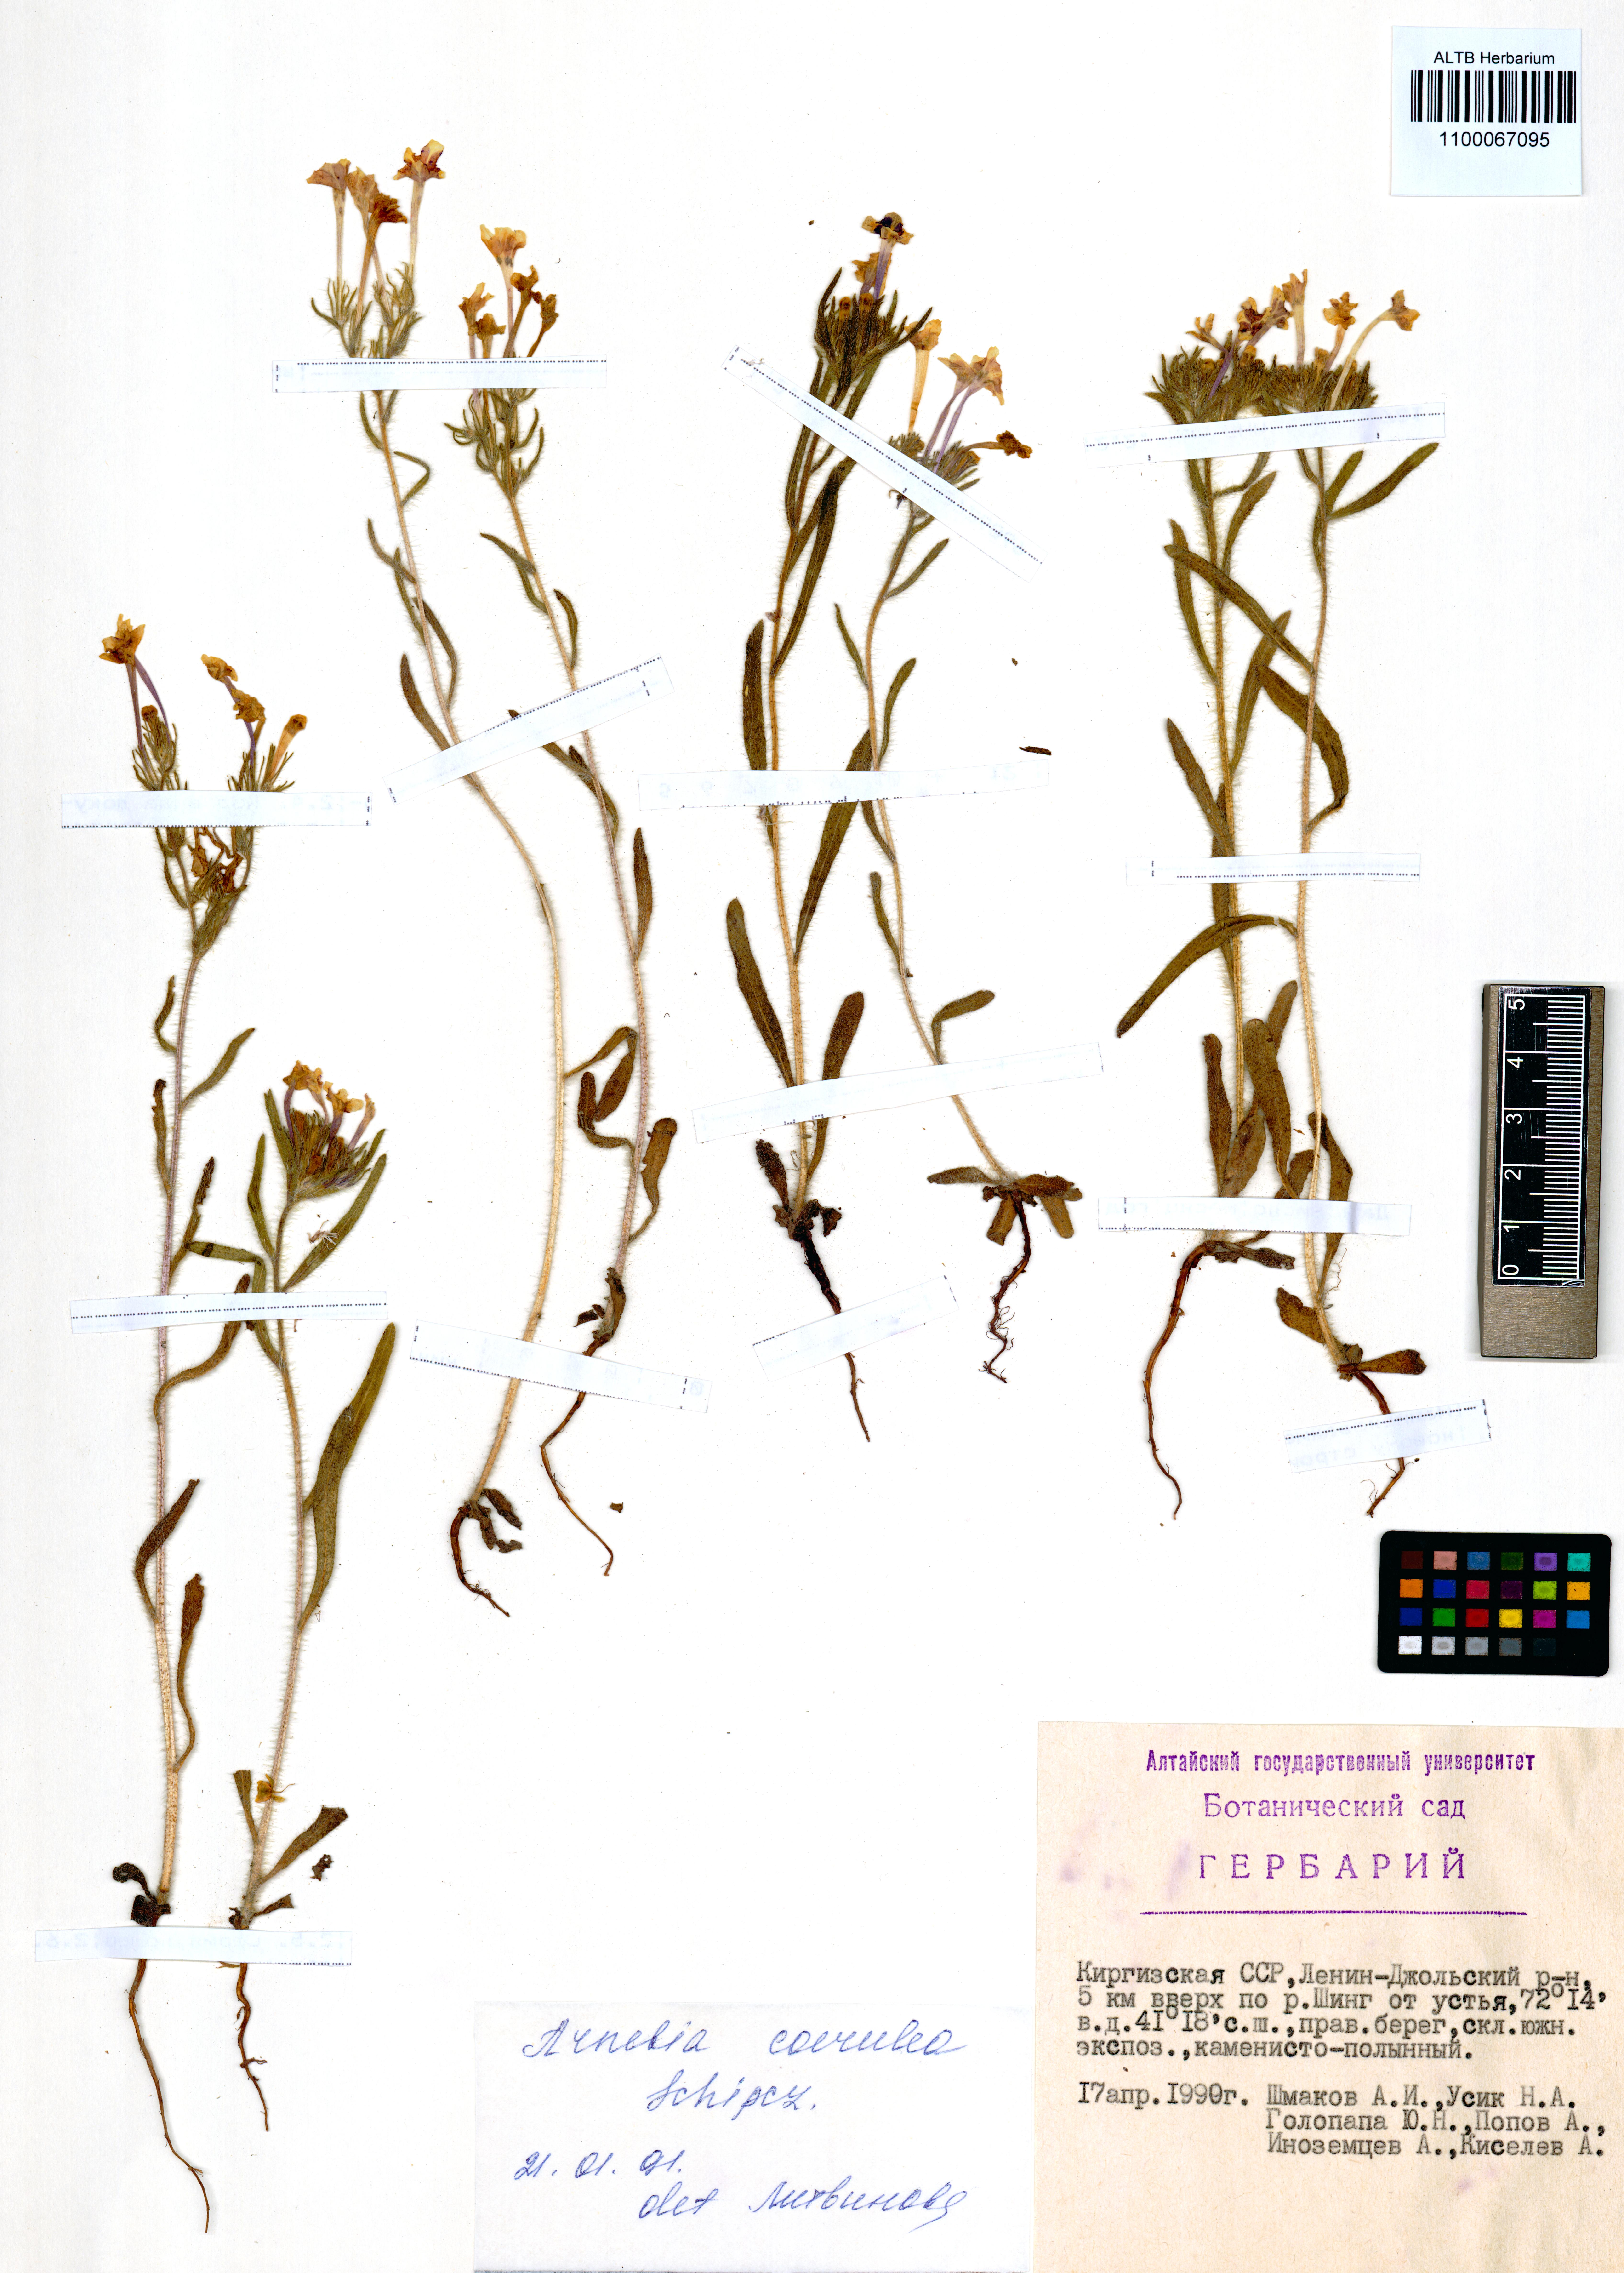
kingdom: Plantae
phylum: Tracheophyta
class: Magnoliopsida
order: Boraginales
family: Boraginaceae
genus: Arnebia
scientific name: Arnebia coerulea
